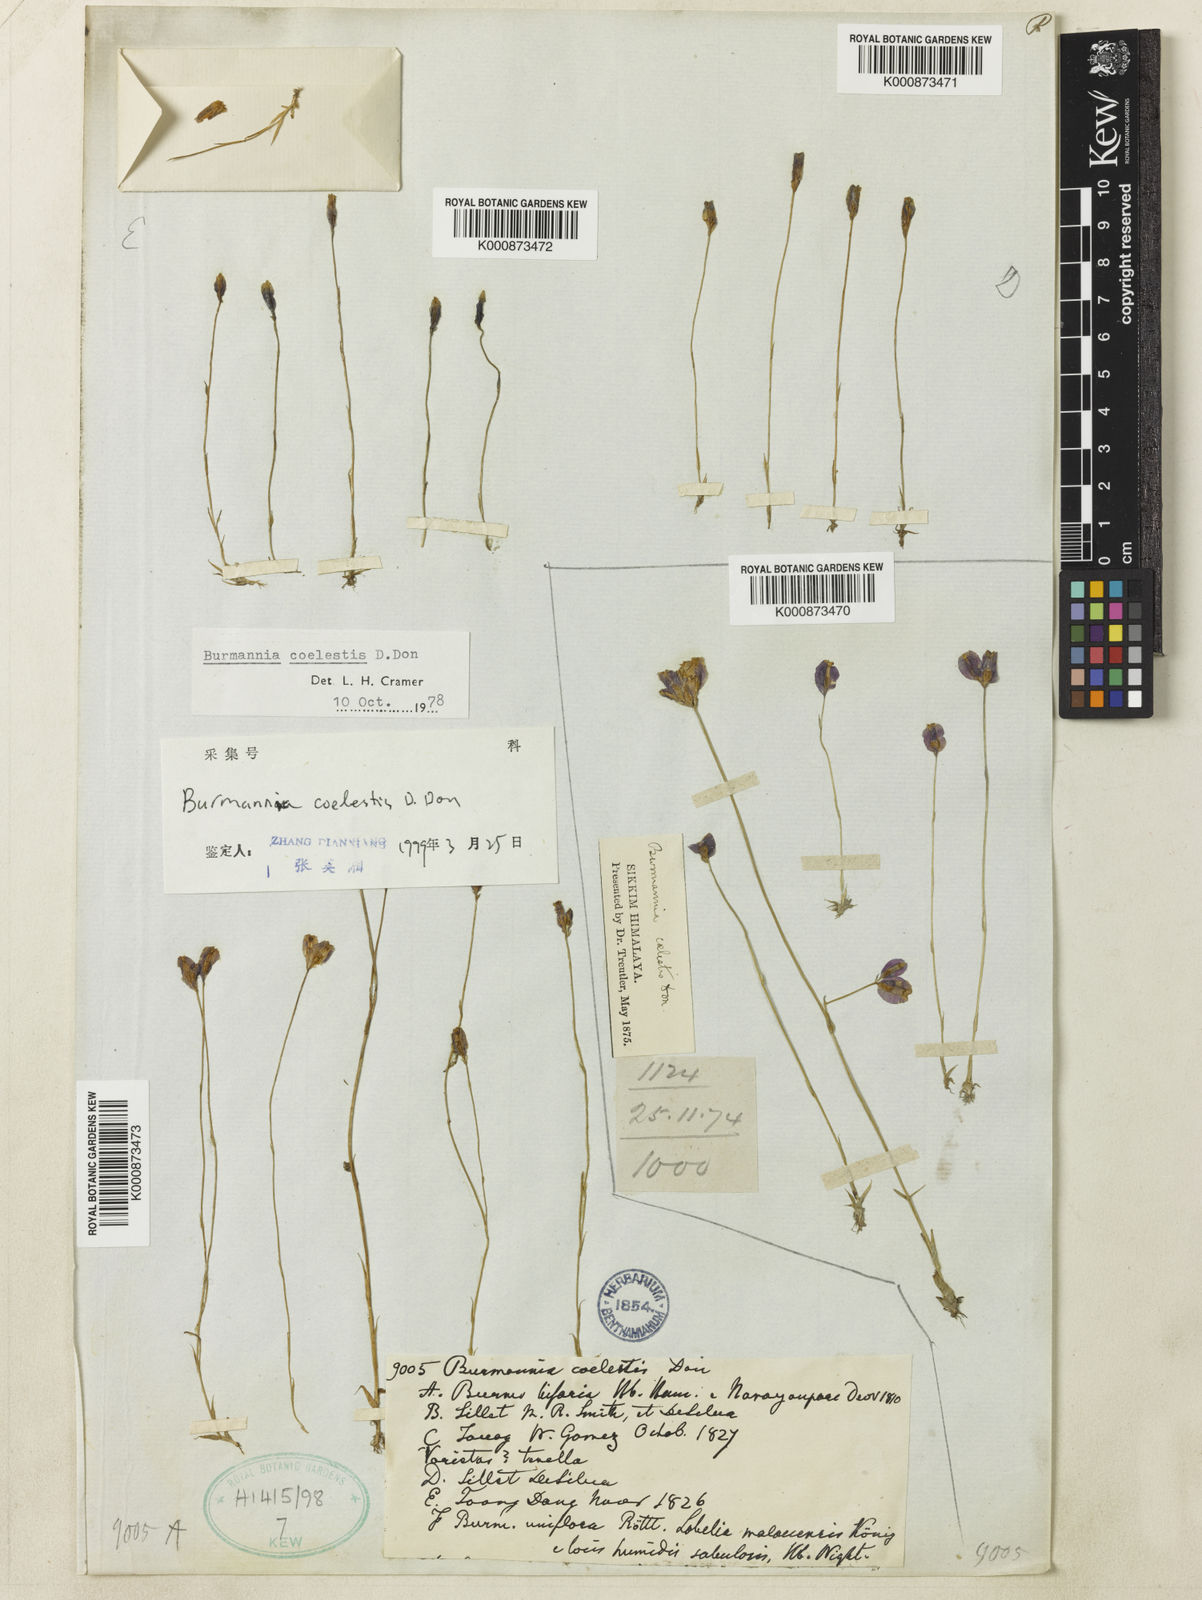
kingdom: Plantae
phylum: Tracheophyta
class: Liliopsida
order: Dioscoreales
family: Burmanniaceae
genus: Burmannia
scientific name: Burmannia coelestis
